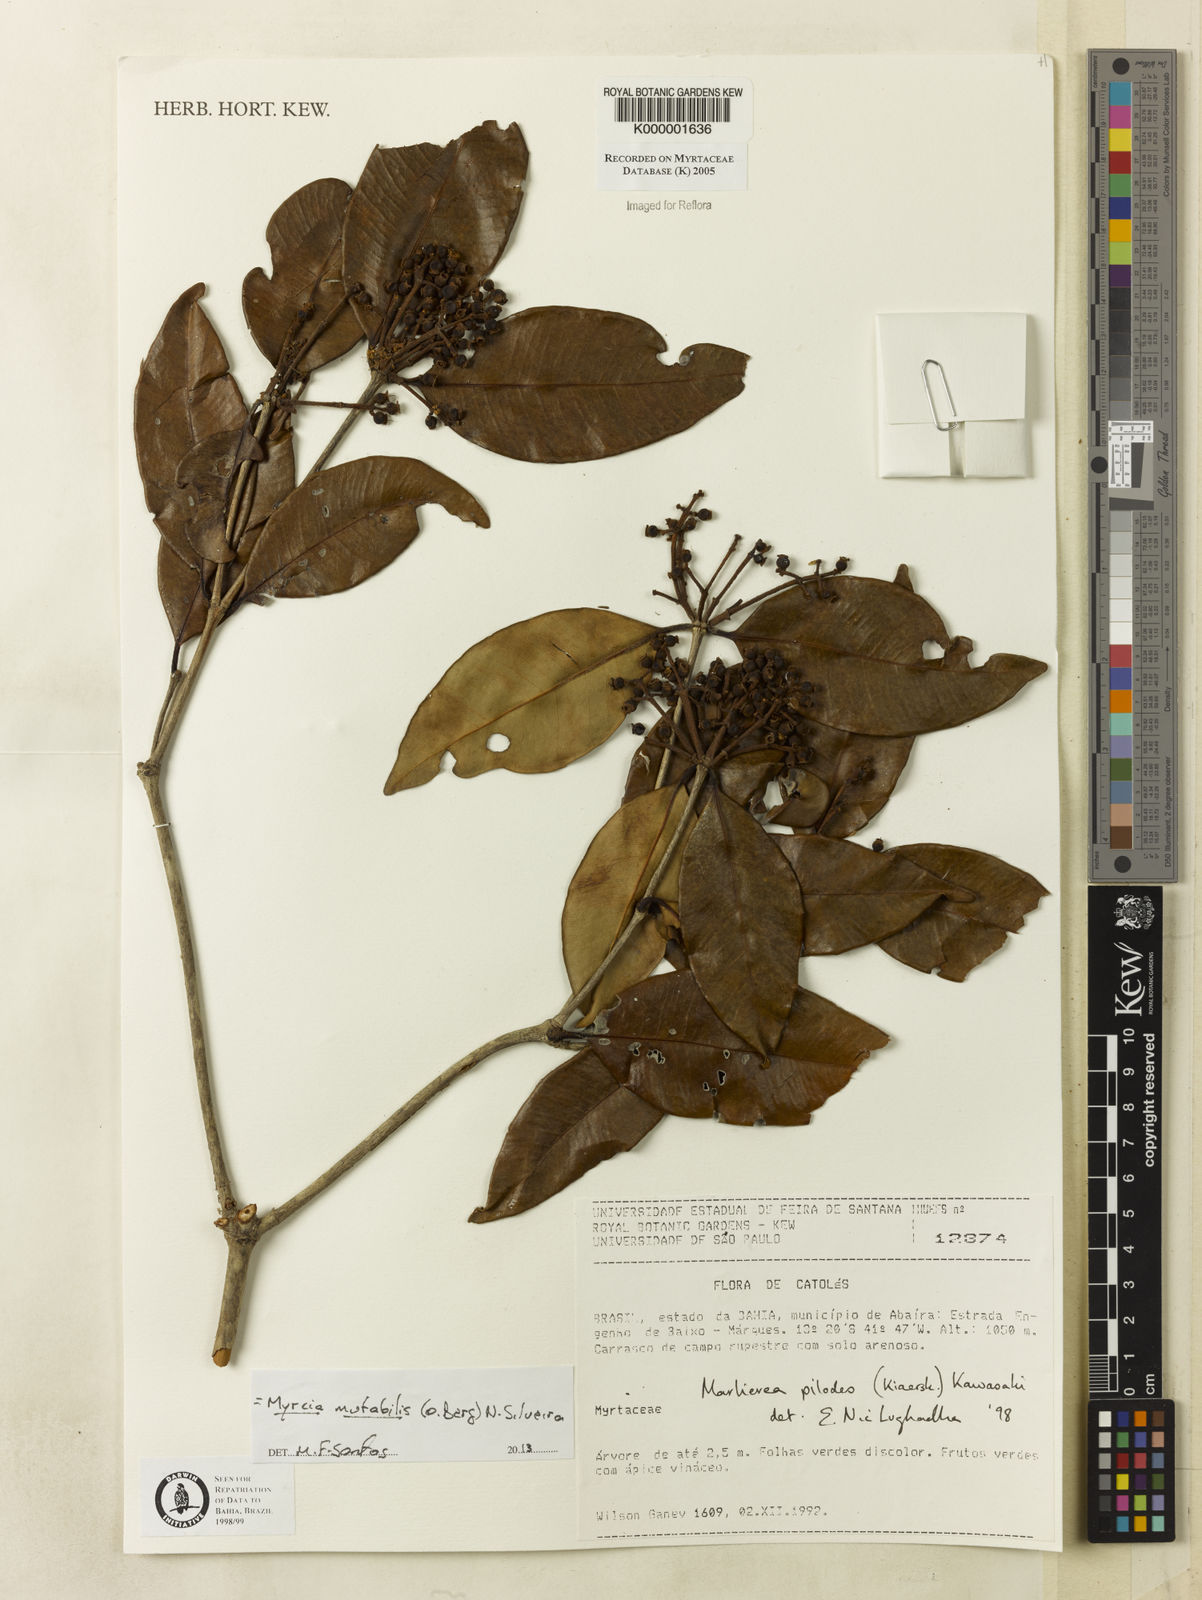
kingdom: Plantae
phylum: Tracheophyta
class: Magnoliopsida
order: Myrtales
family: Myrtaceae
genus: Myrcia
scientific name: Myrcia mutabilis
